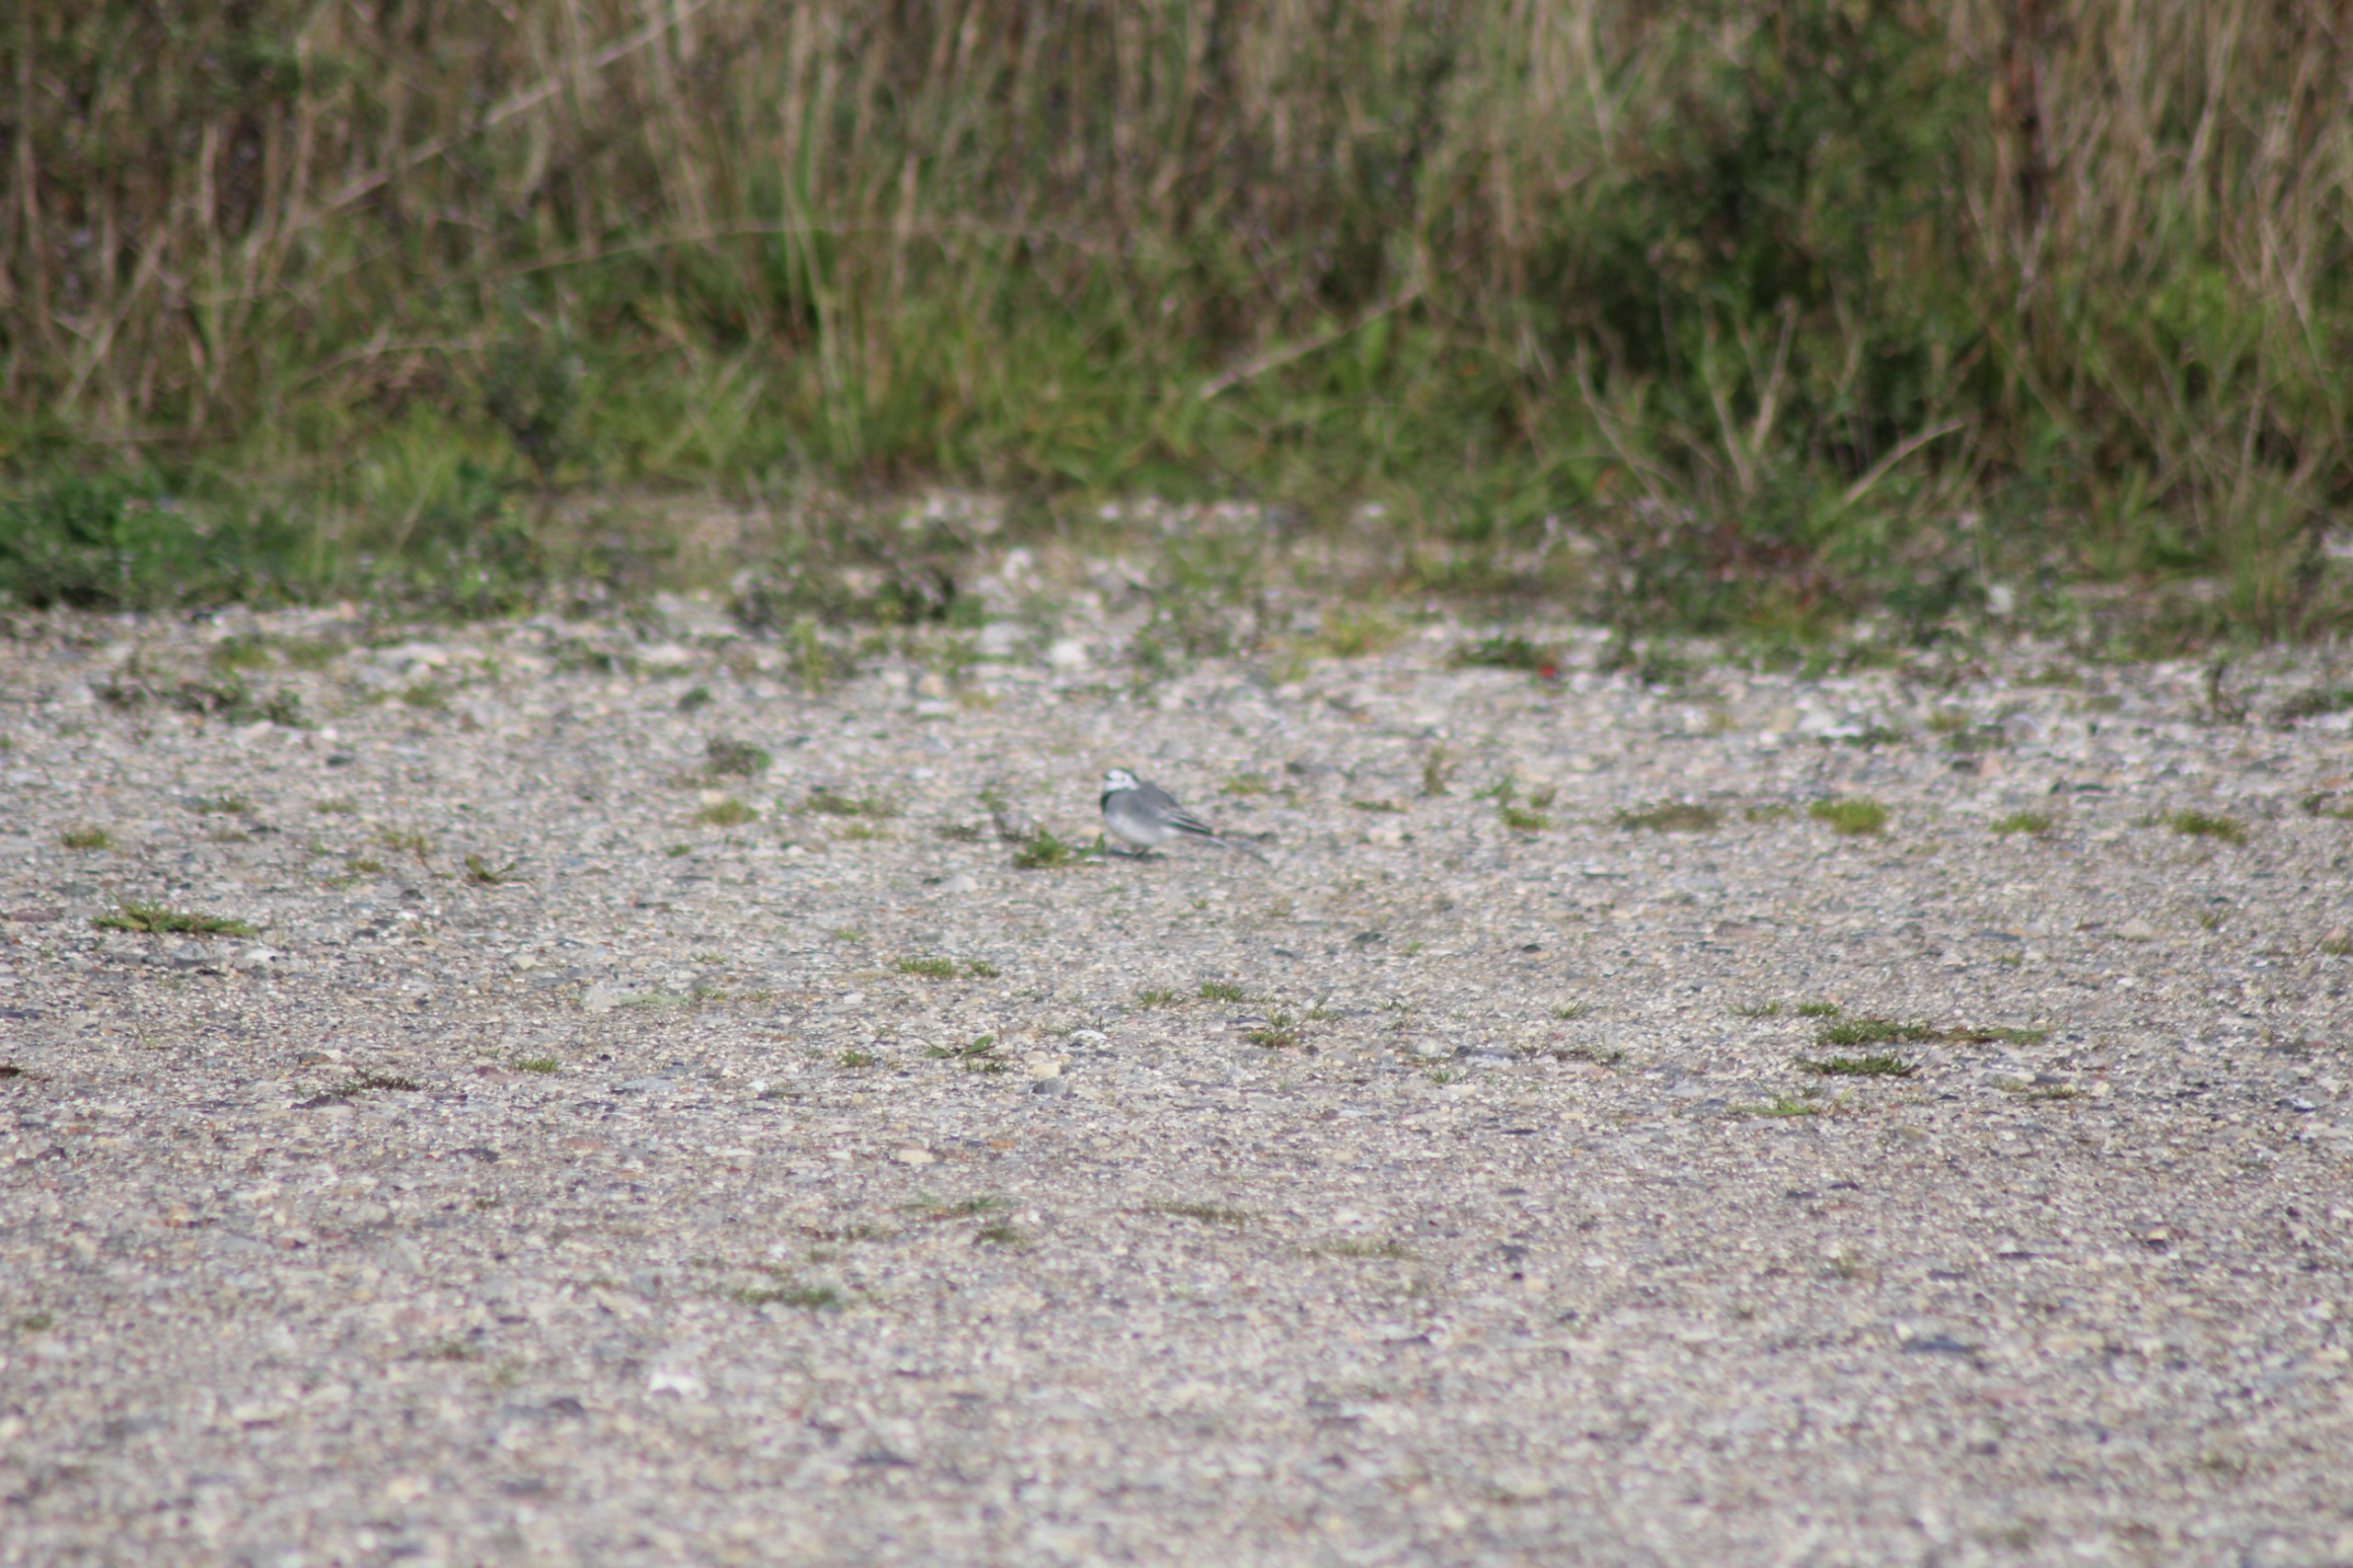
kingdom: Animalia
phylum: Chordata
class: Aves
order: Passeriformes
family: Motacillidae
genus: Motacilla
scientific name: Motacilla alba
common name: Hvid vipstjert
